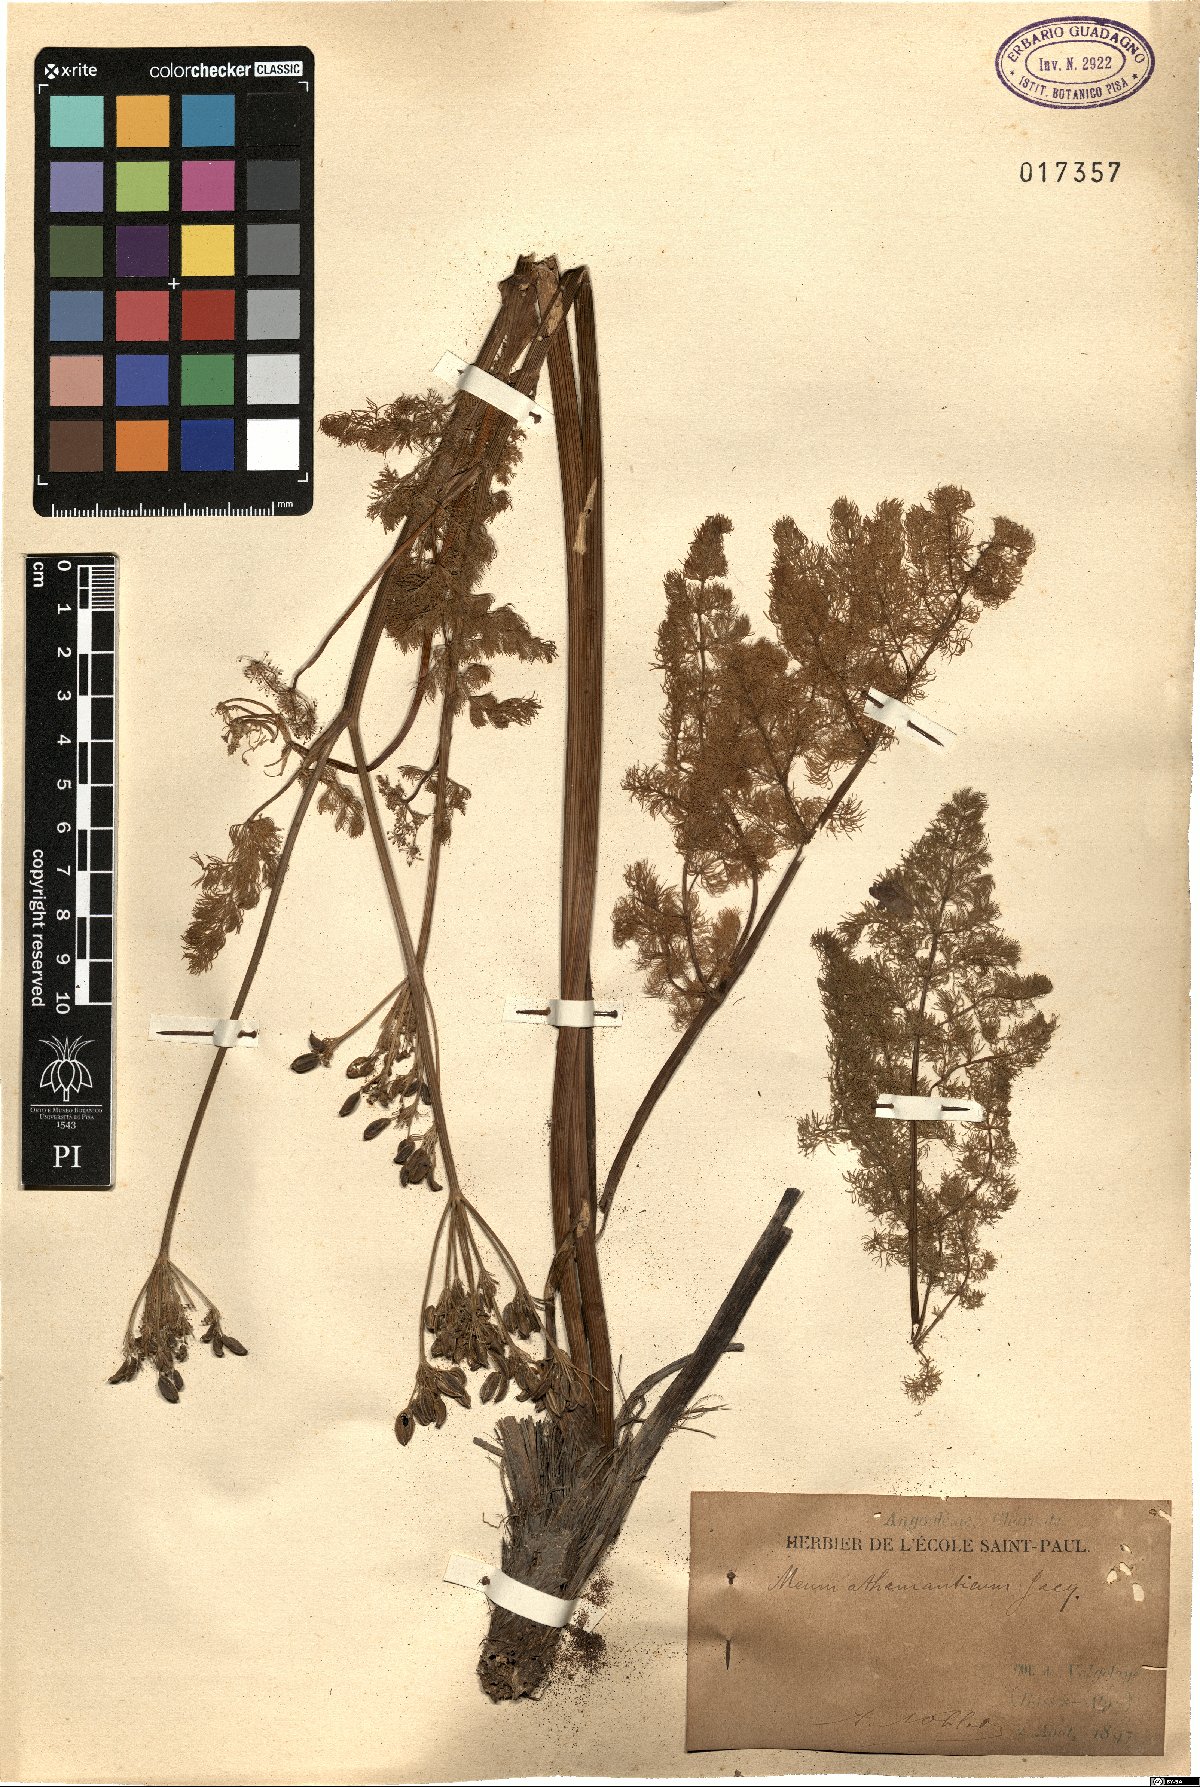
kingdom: Plantae
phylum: Tracheophyta
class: Magnoliopsida
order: Apiales
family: Apiaceae
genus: Meum
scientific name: Meum athamanticum
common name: Spignel
